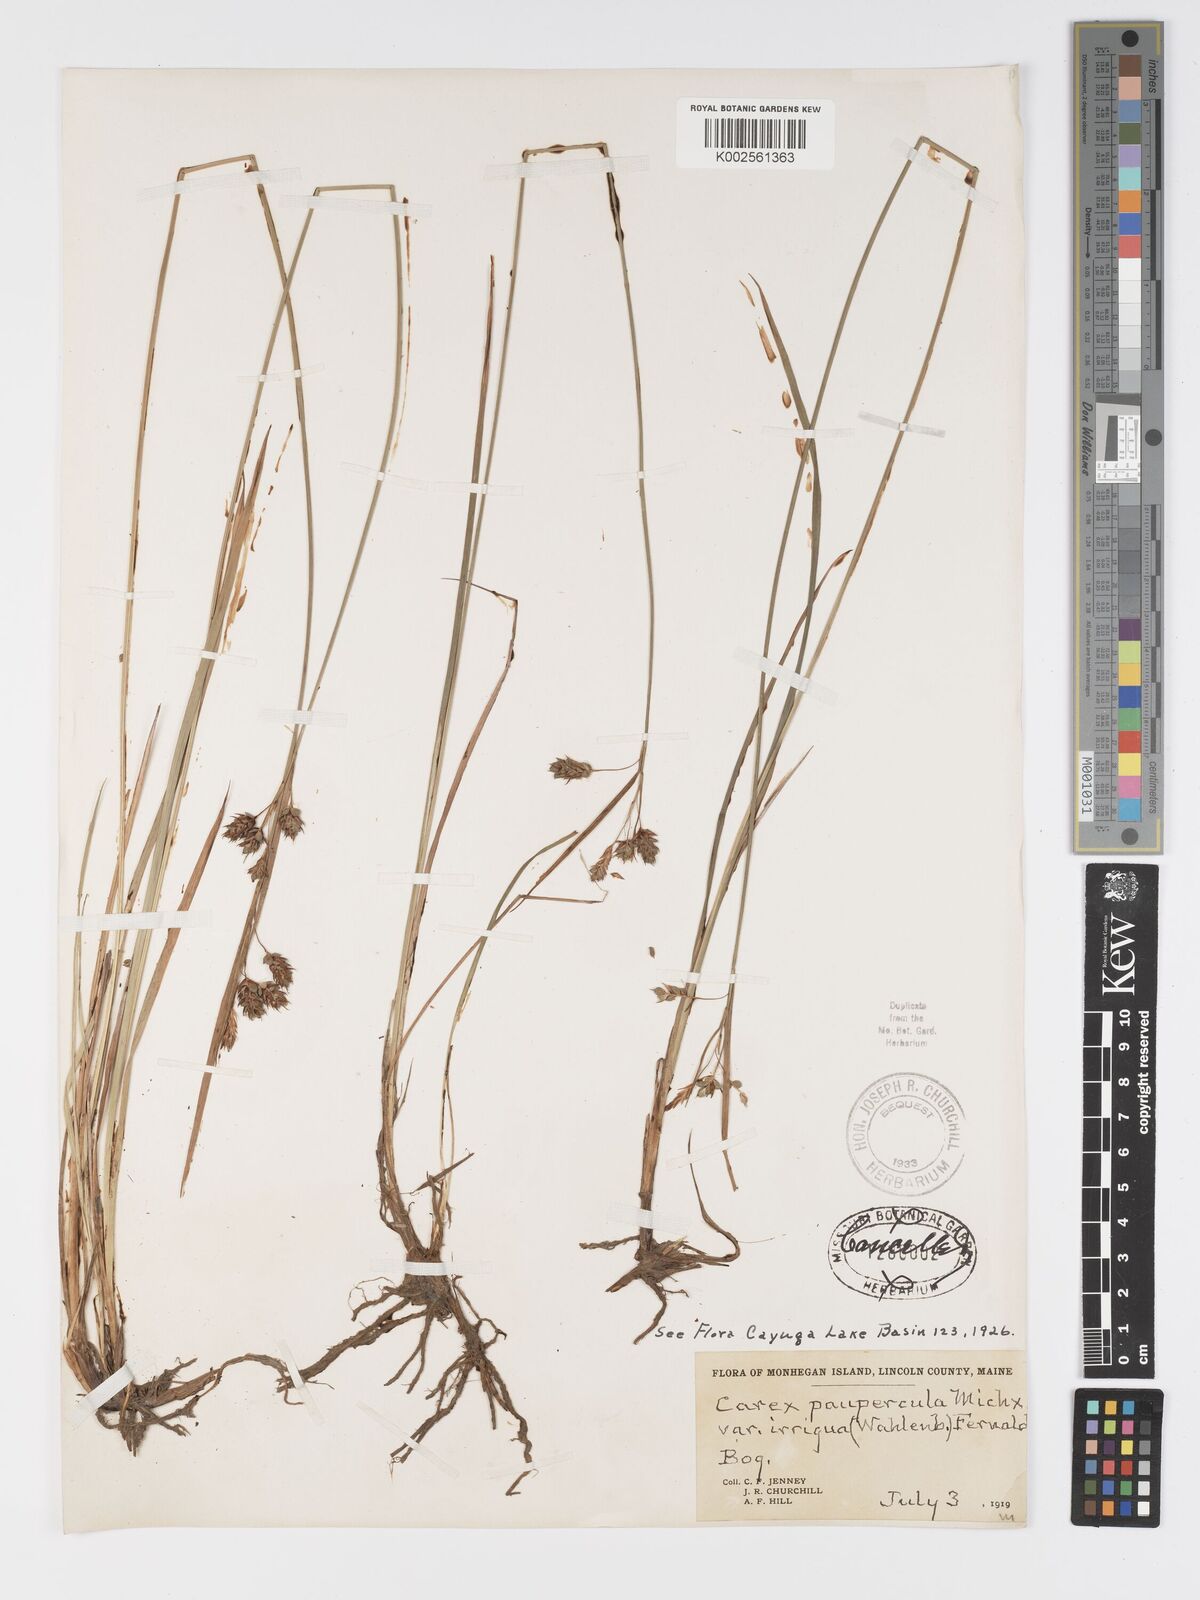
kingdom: Plantae
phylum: Tracheophyta
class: Liliopsida
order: Poales
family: Cyperaceae
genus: Carex
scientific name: Carex magellanica
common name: Bog sedge
